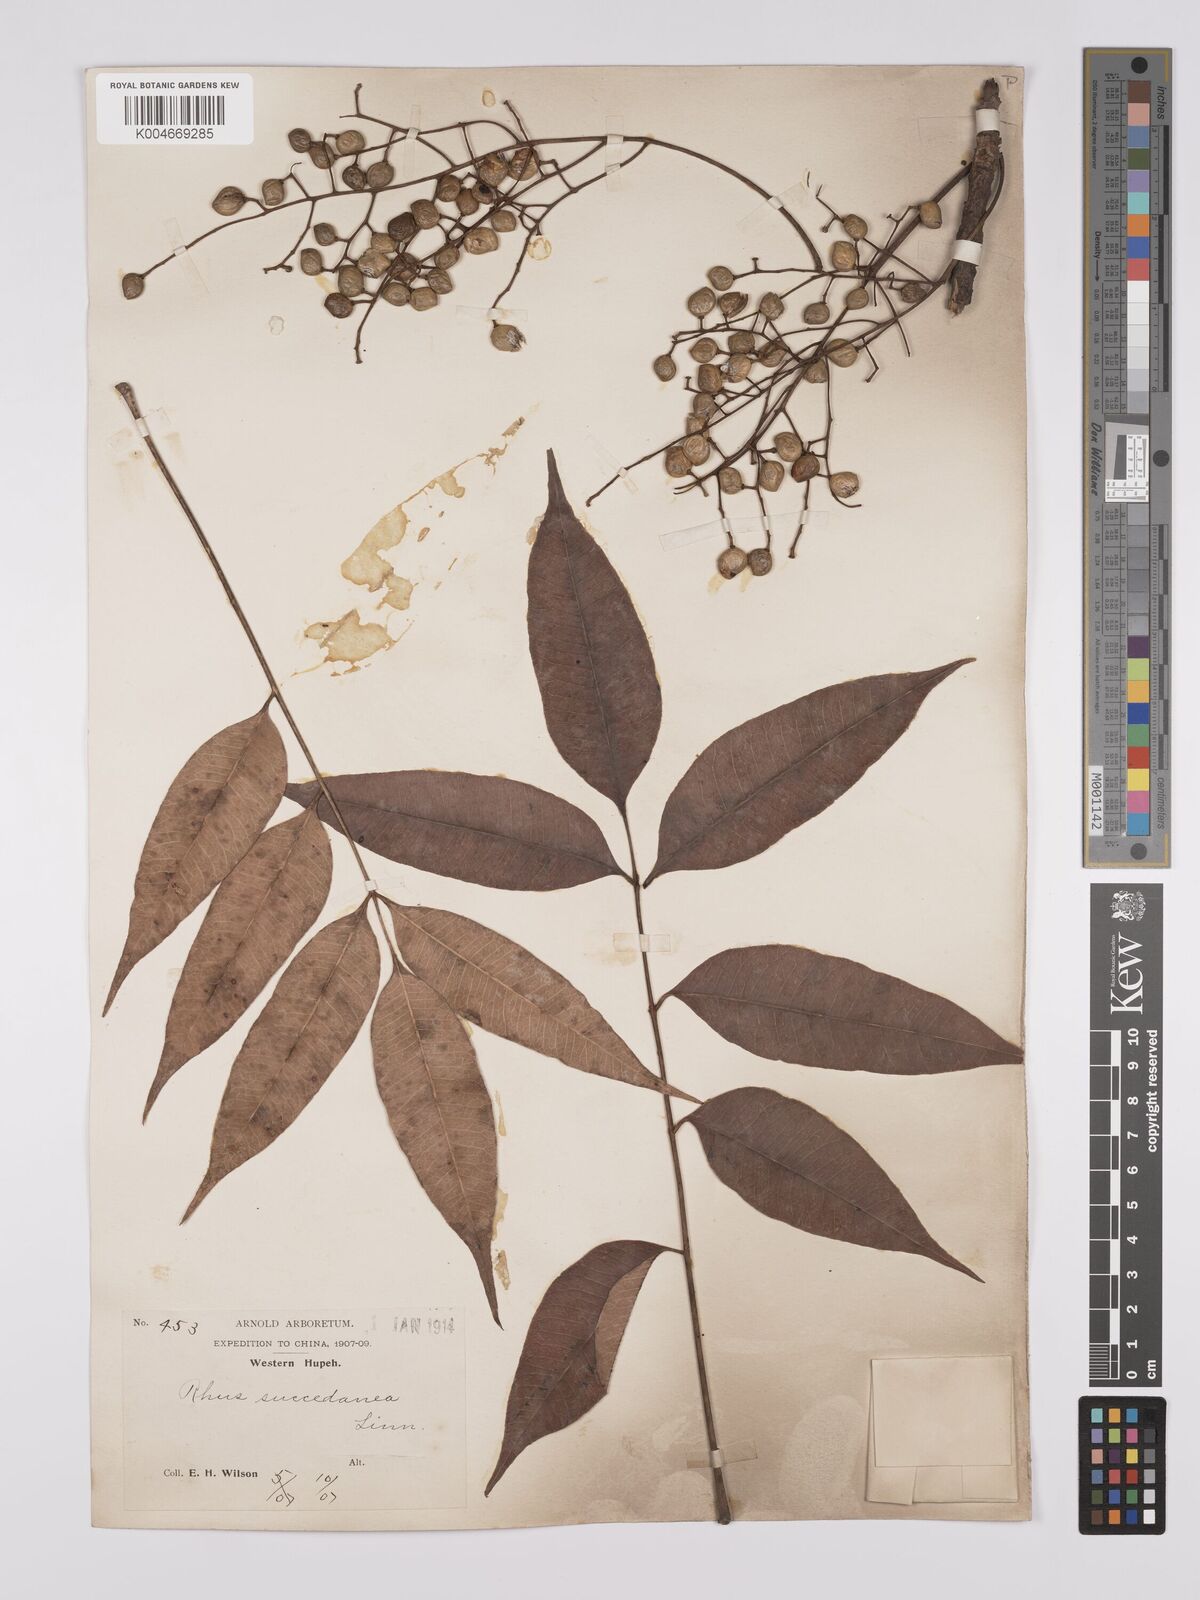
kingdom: Plantae
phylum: Tracheophyta
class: Magnoliopsida
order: Sapindales
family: Anacardiaceae
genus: Toxicodendron
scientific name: Toxicodendron succedaneum
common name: Wax tree
